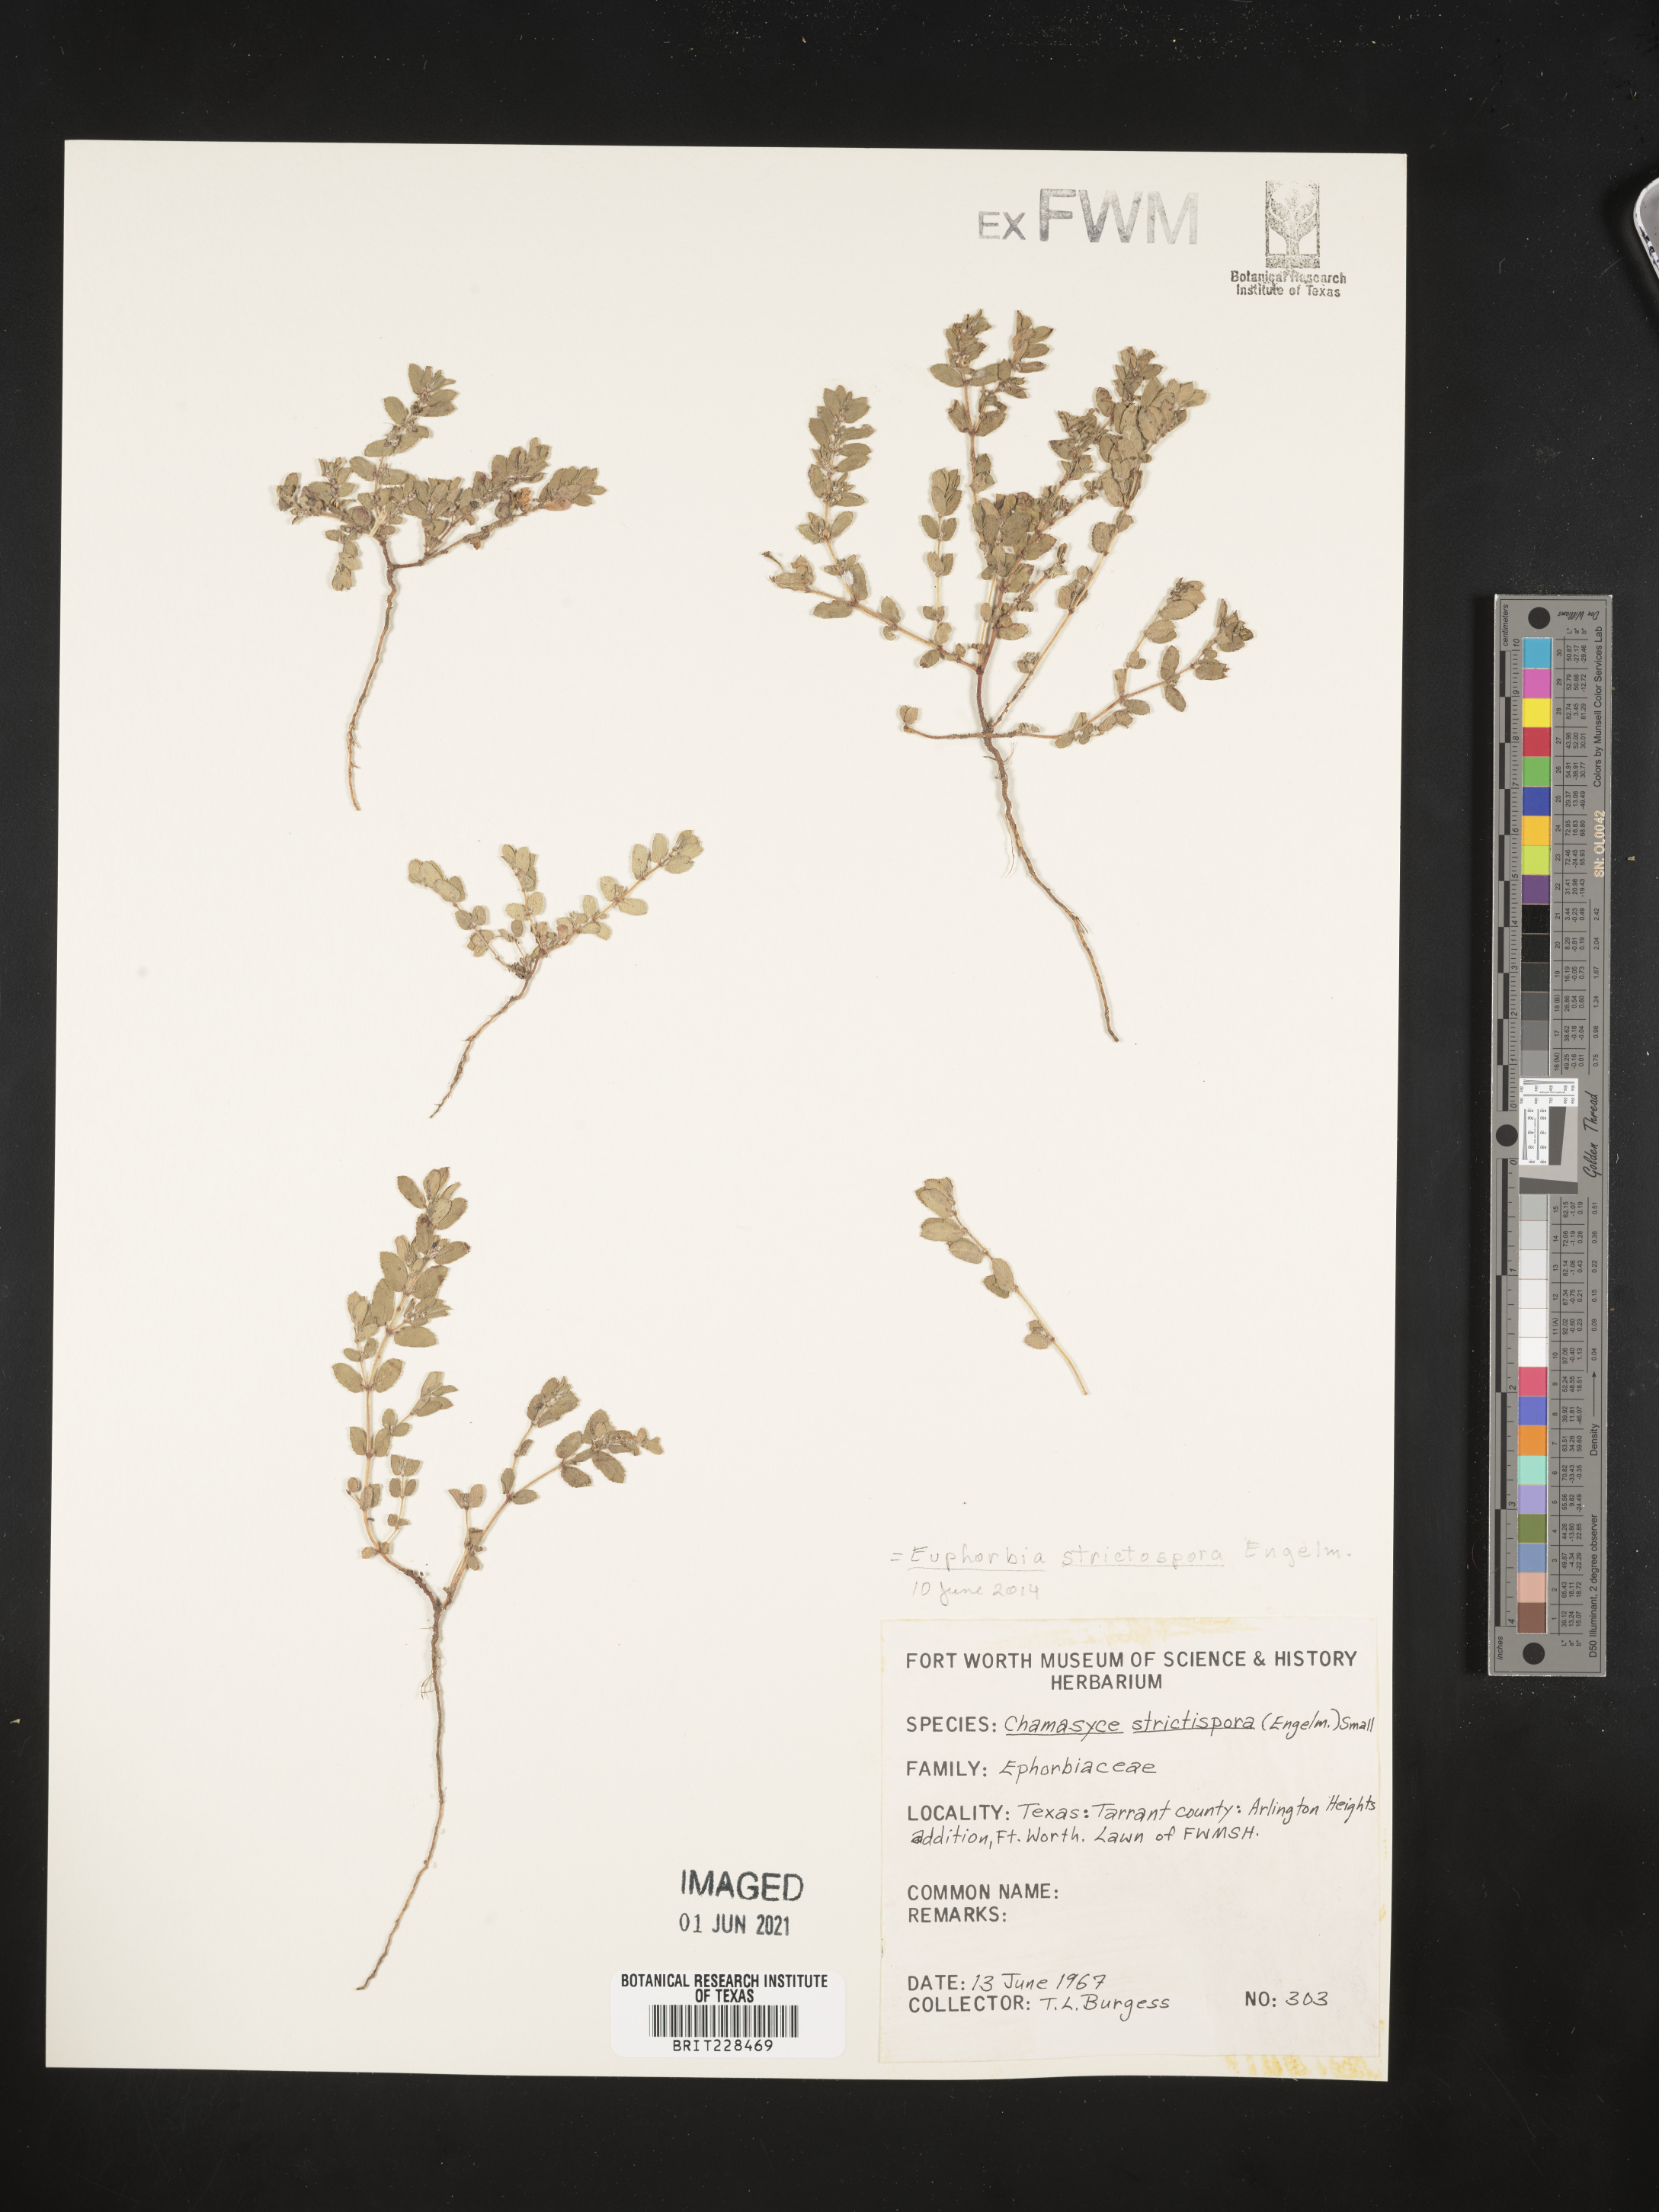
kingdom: Plantae
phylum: Tracheophyta
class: Magnoliopsida
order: Malpighiales
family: Euphorbiaceae
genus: Euphorbia
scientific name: Euphorbia stictospora
